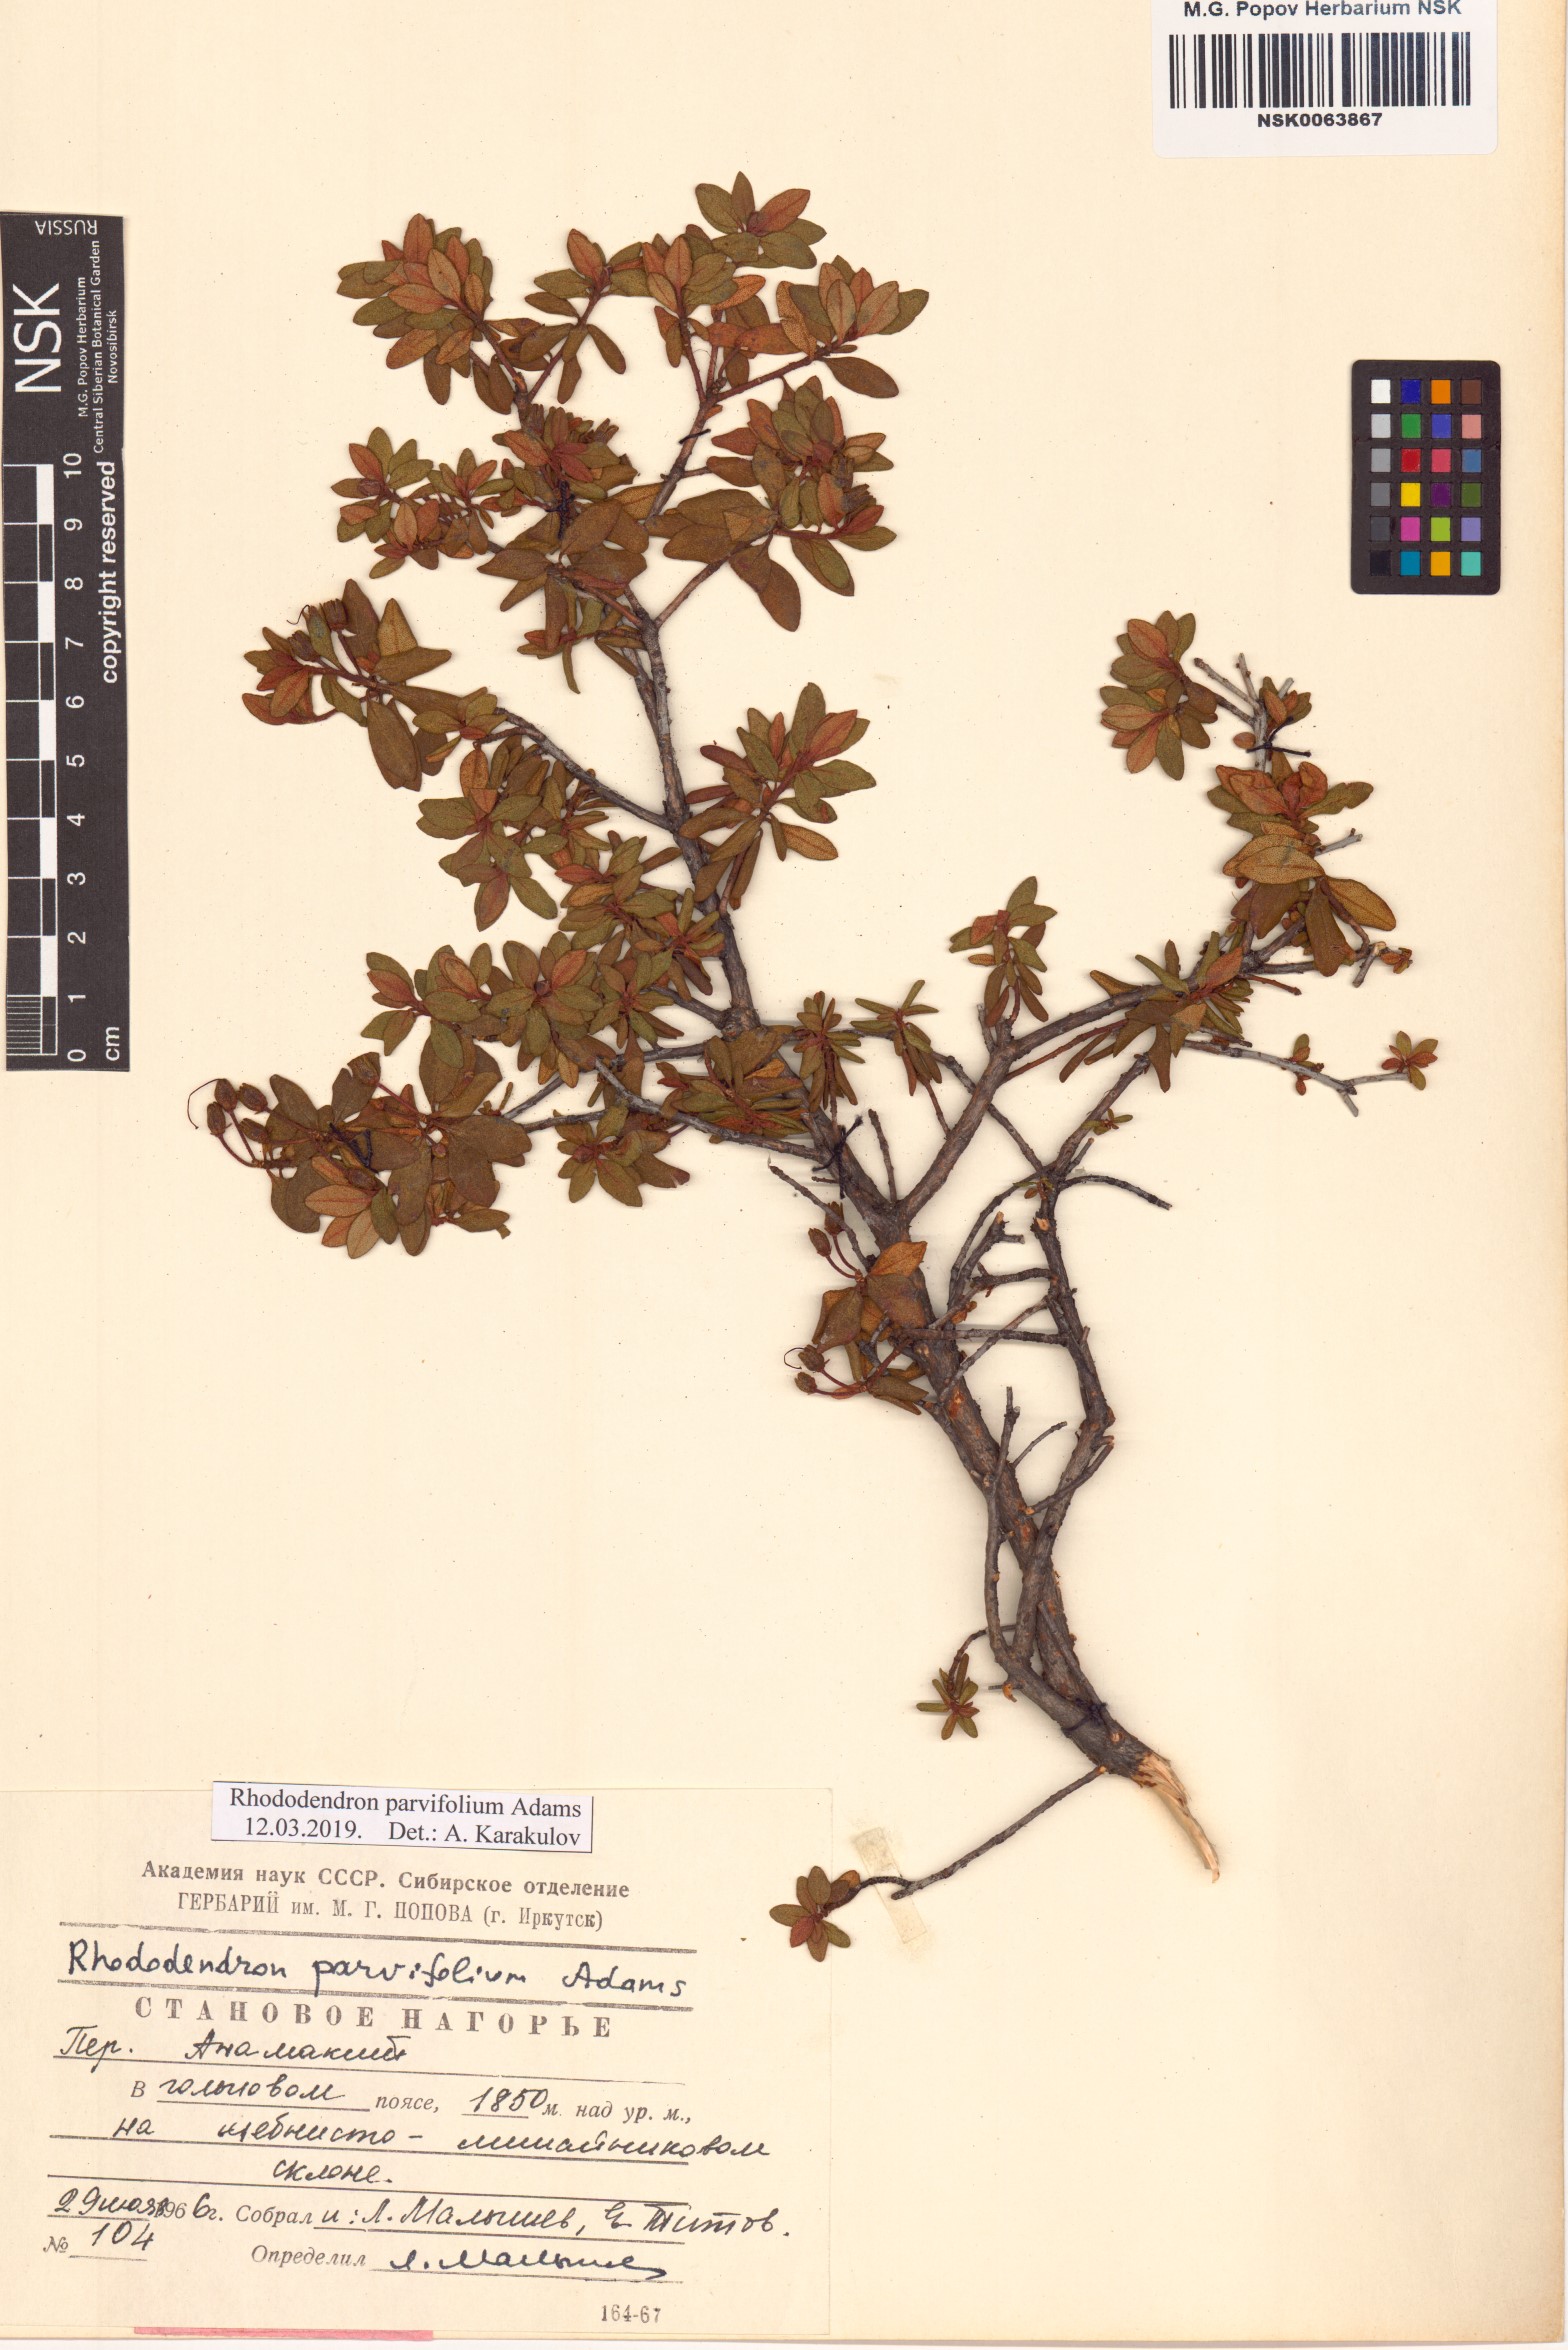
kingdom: Plantae
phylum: Tracheophyta
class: Magnoliopsida
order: Ericales
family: Ericaceae
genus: Rhododendron
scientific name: Rhododendron parvifolium
